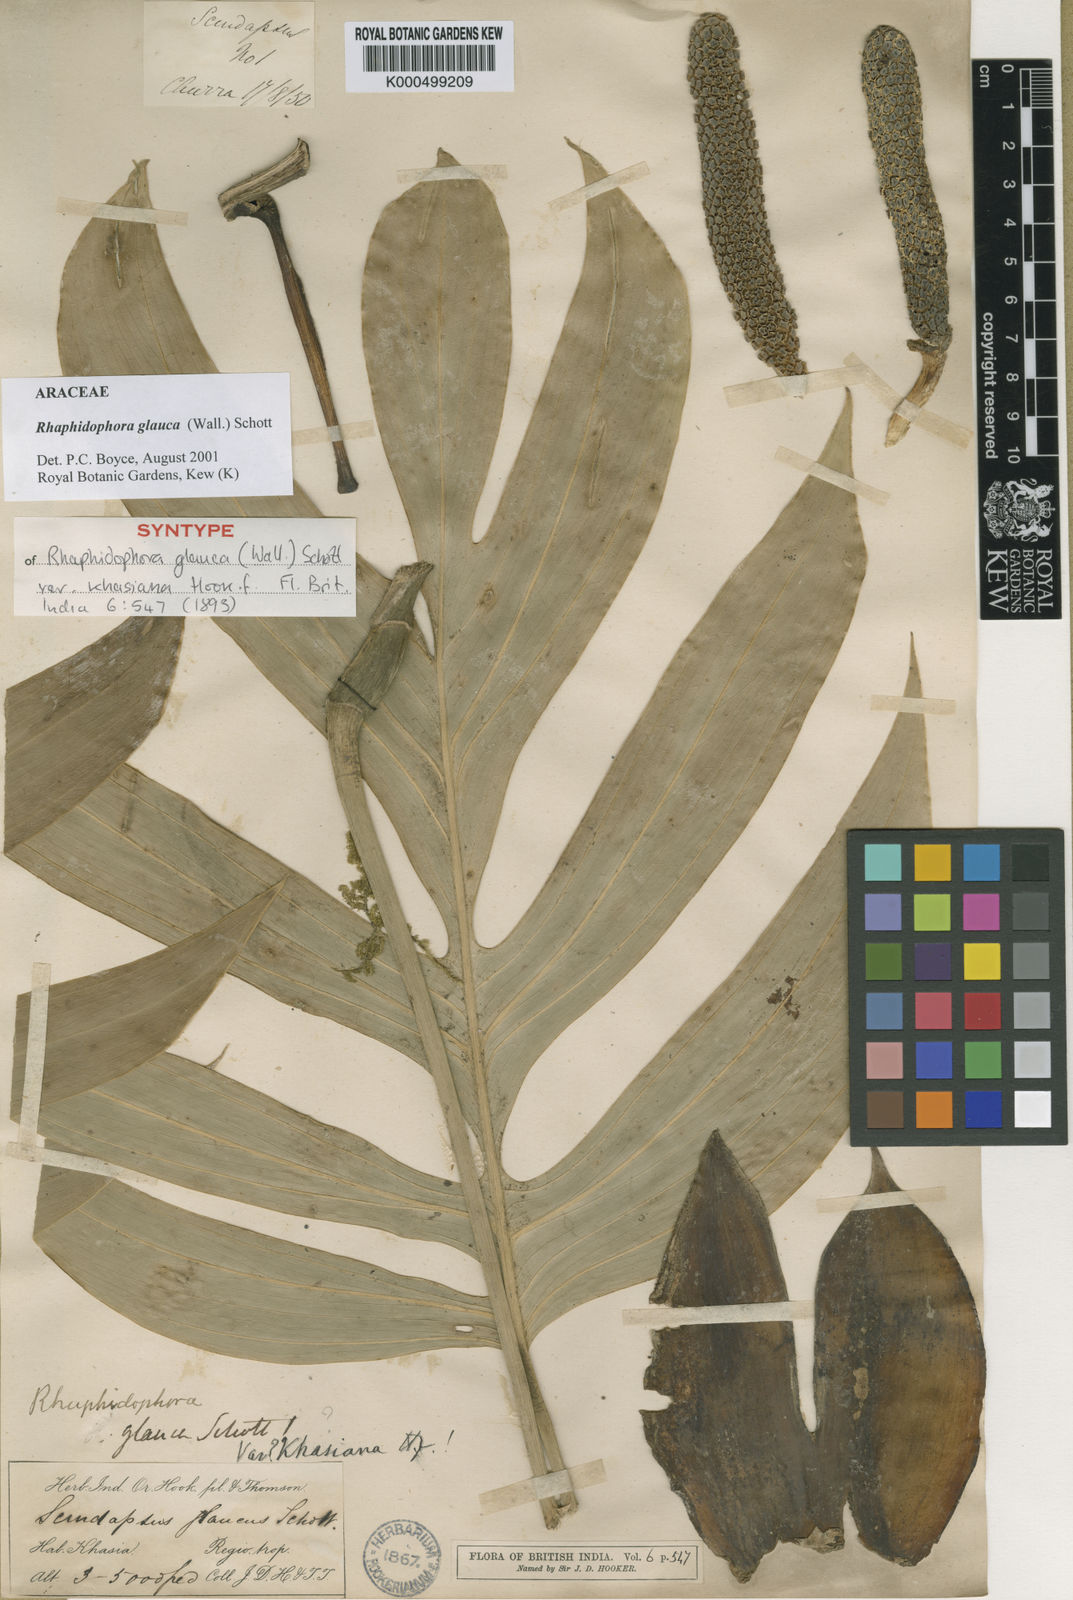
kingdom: Plantae
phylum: Tracheophyta
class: Liliopsida
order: Alismatales
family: Araceae
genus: Rhaphidophora
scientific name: Rhaphidophora glauca
